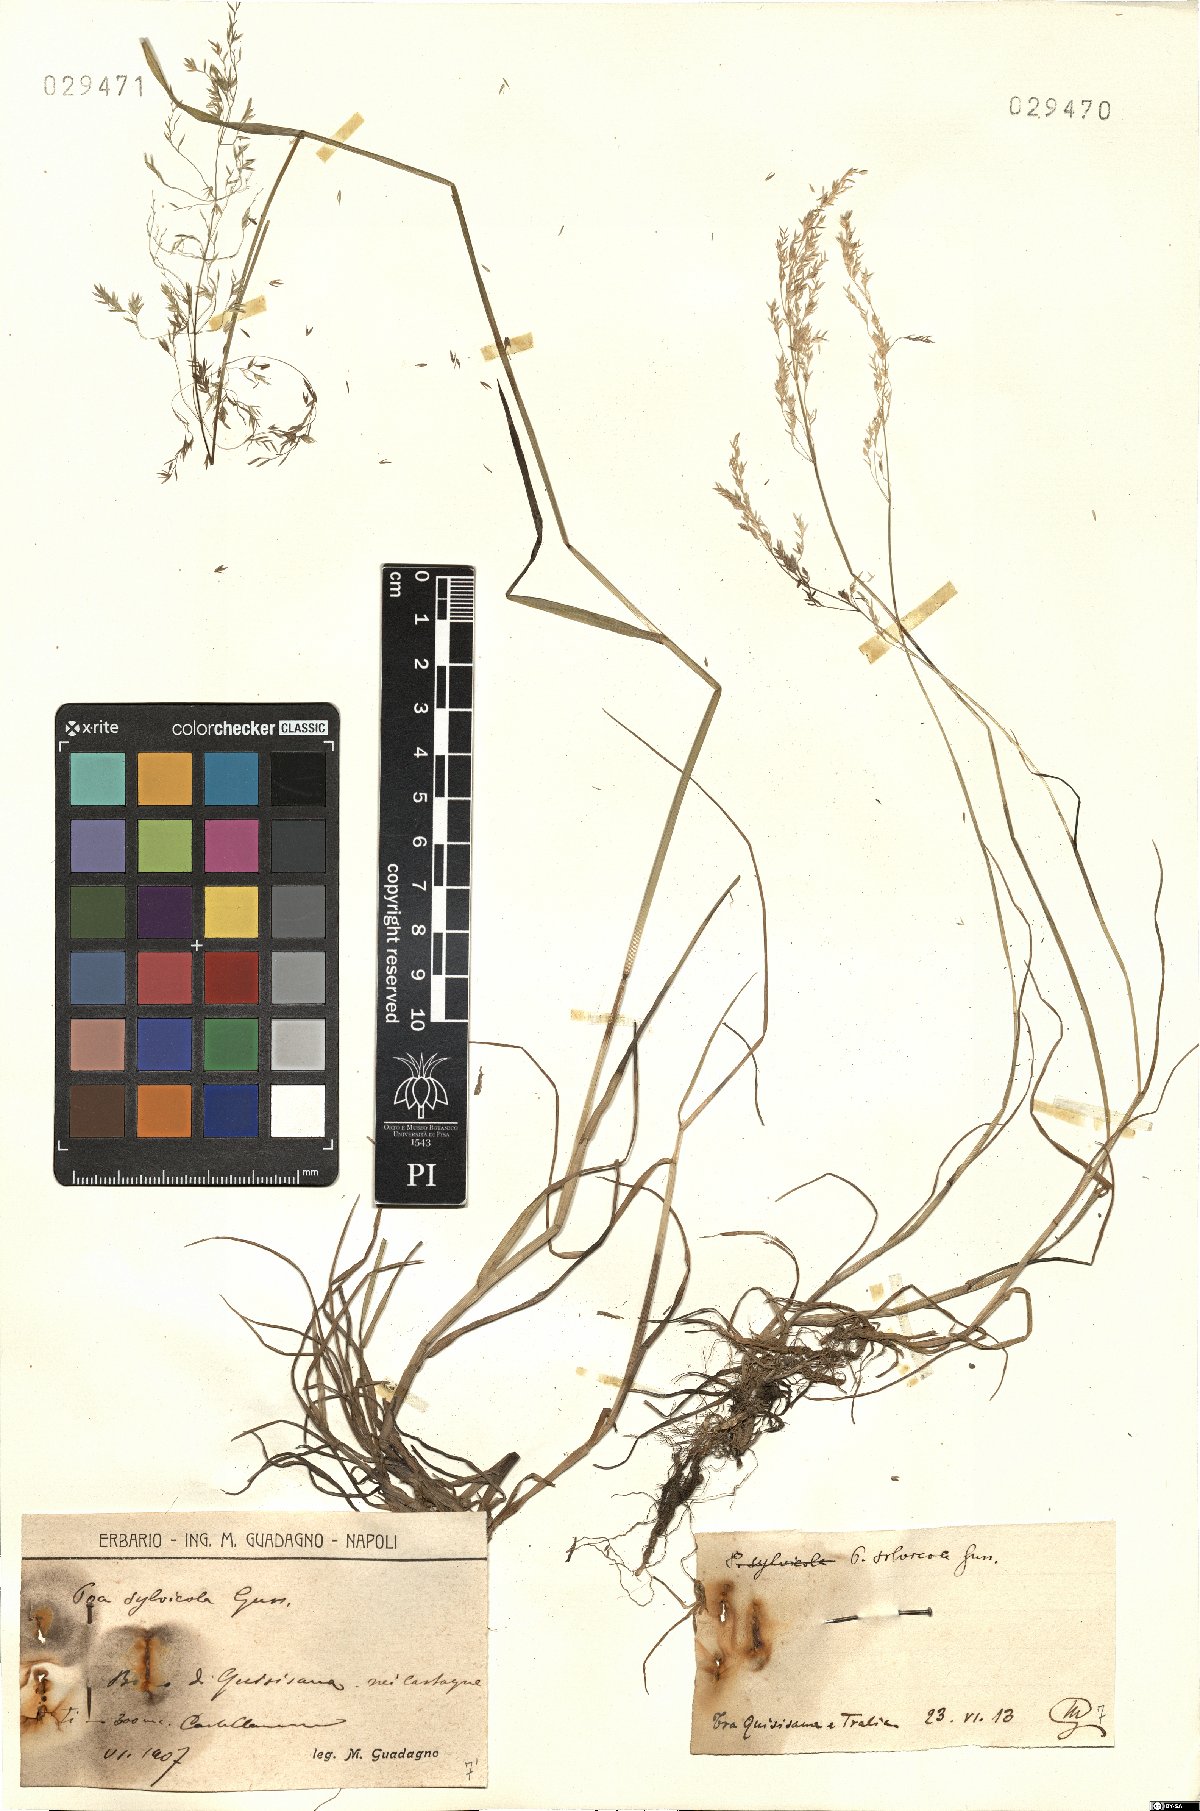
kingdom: Plantae
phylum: Tracheophyta
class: Liliopsida
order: Poales
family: Poaceae
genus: Poa
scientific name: Poa trivialis
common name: Rough bluegrass
